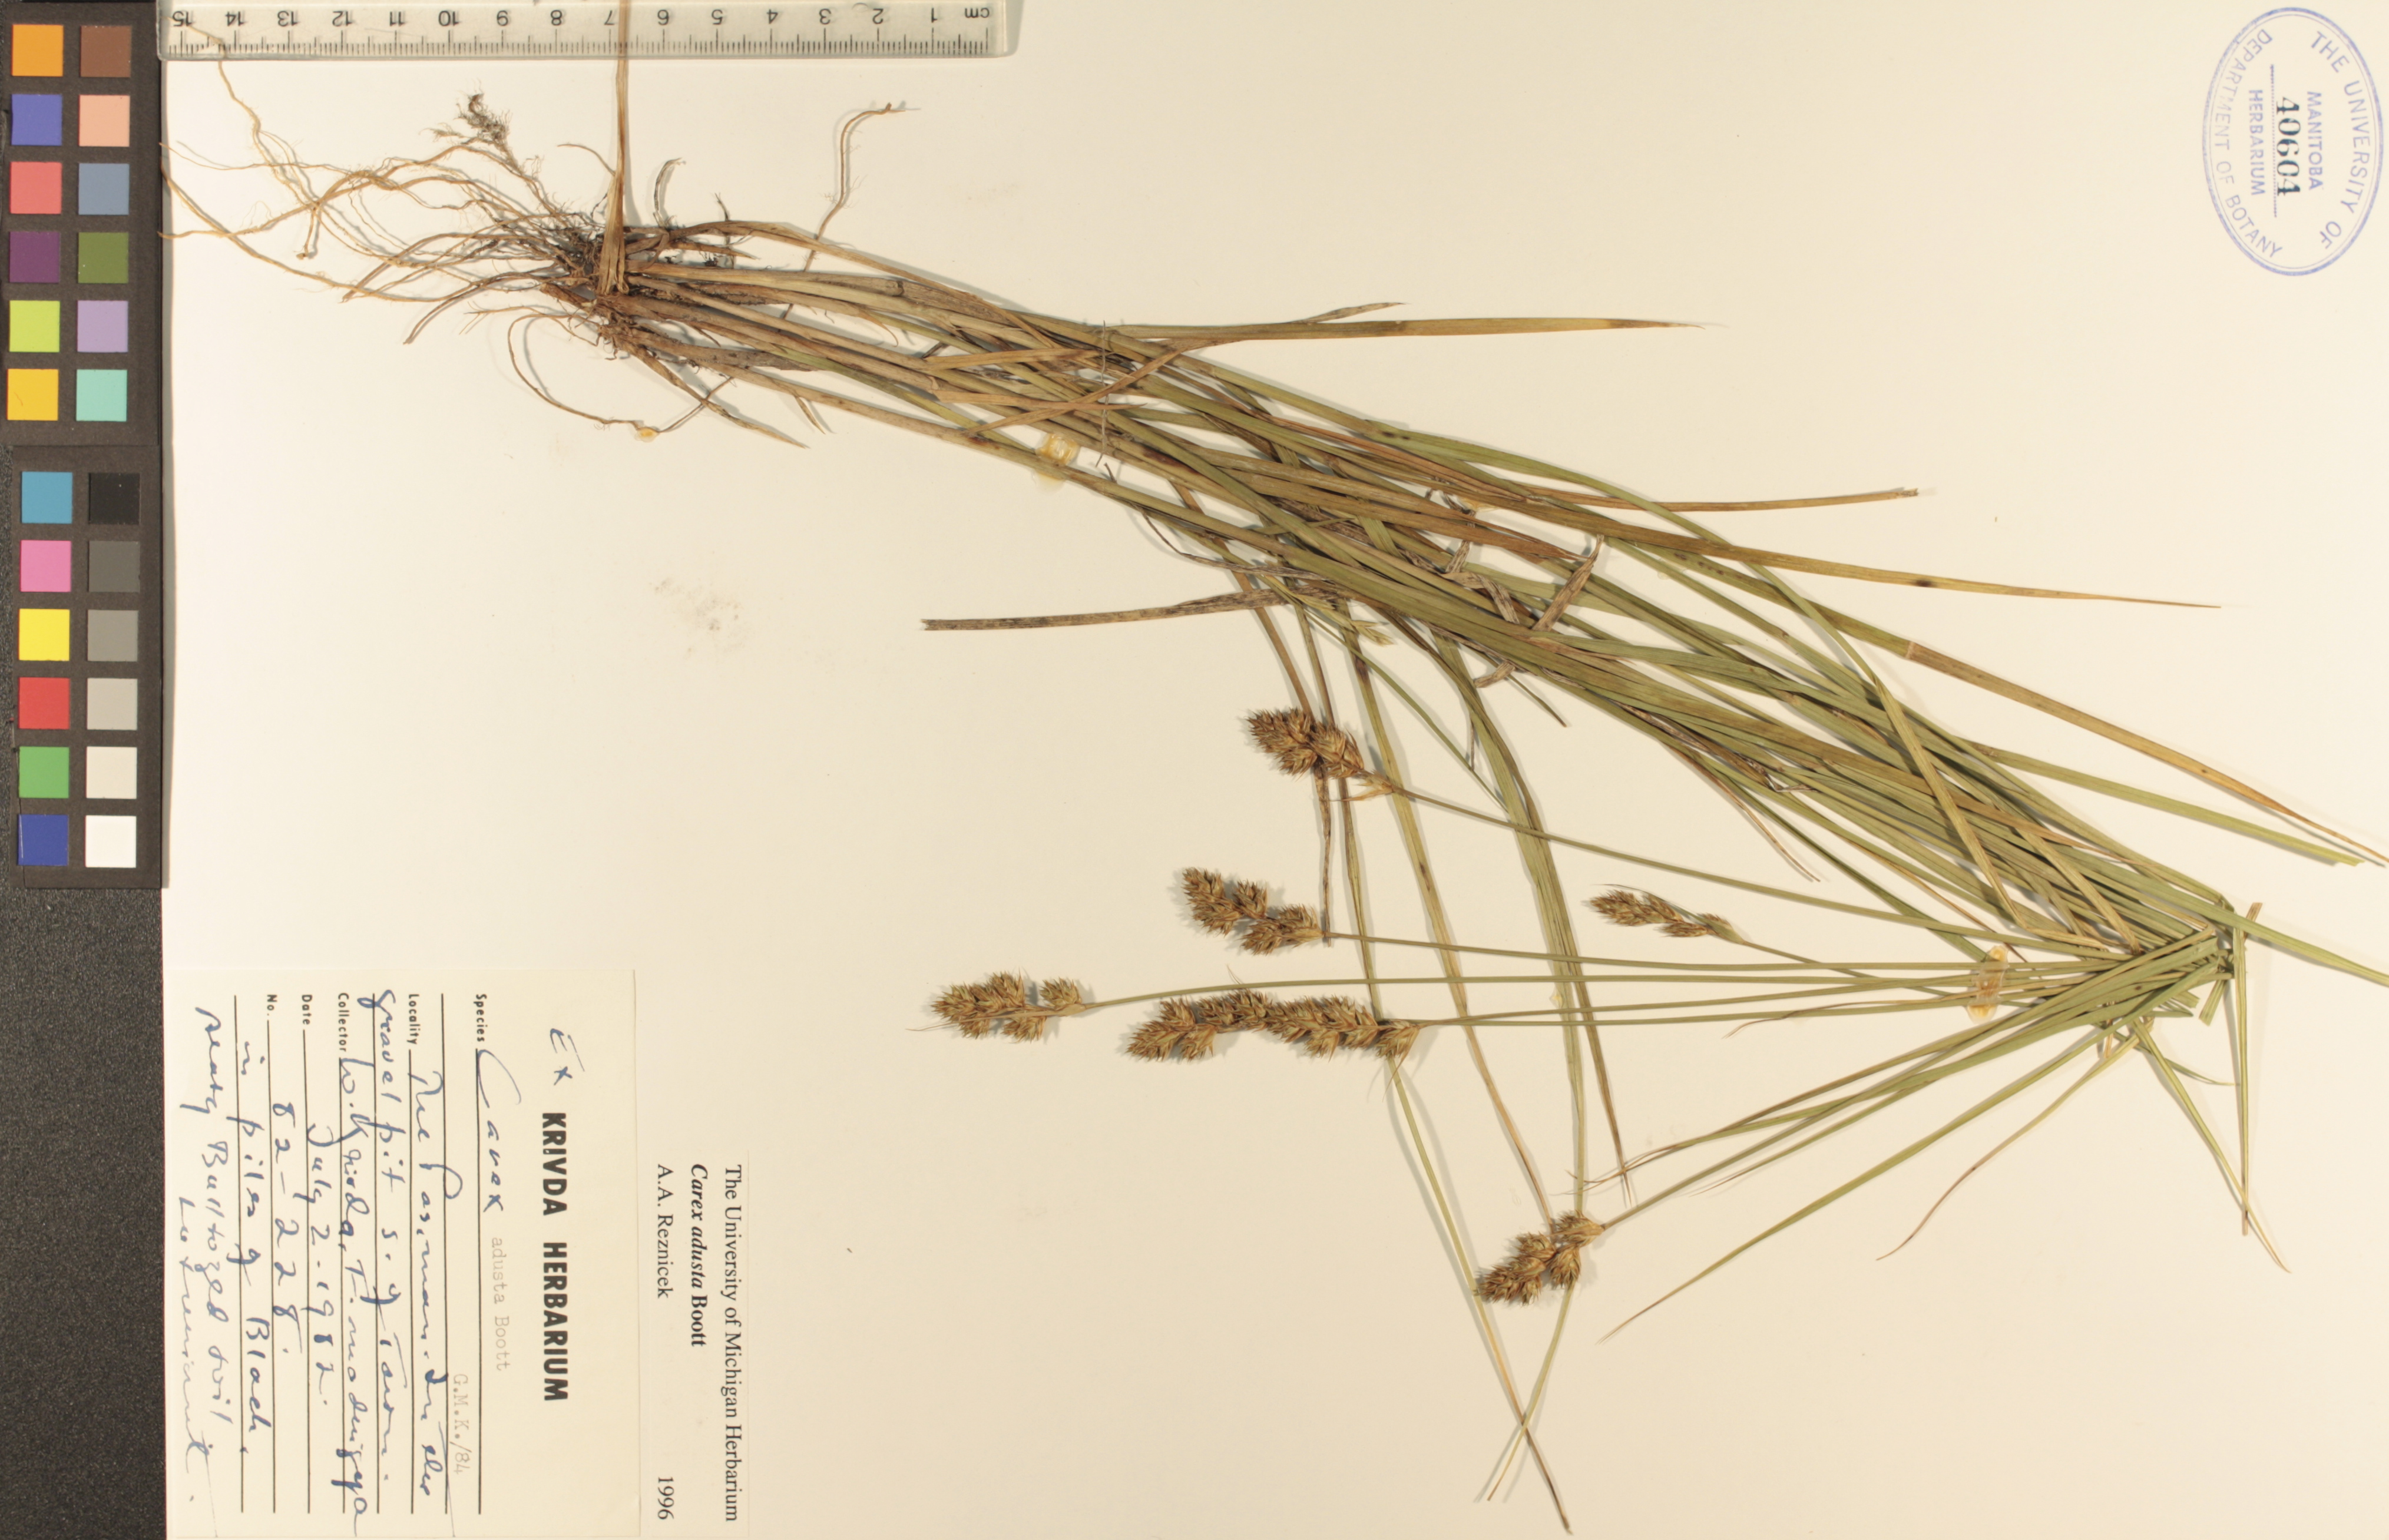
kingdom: Plantae
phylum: Tracheophyta
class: Liliopsida
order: Poales
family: Cyperaceae
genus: Carex
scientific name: Carex adusta
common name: Browned sedge
